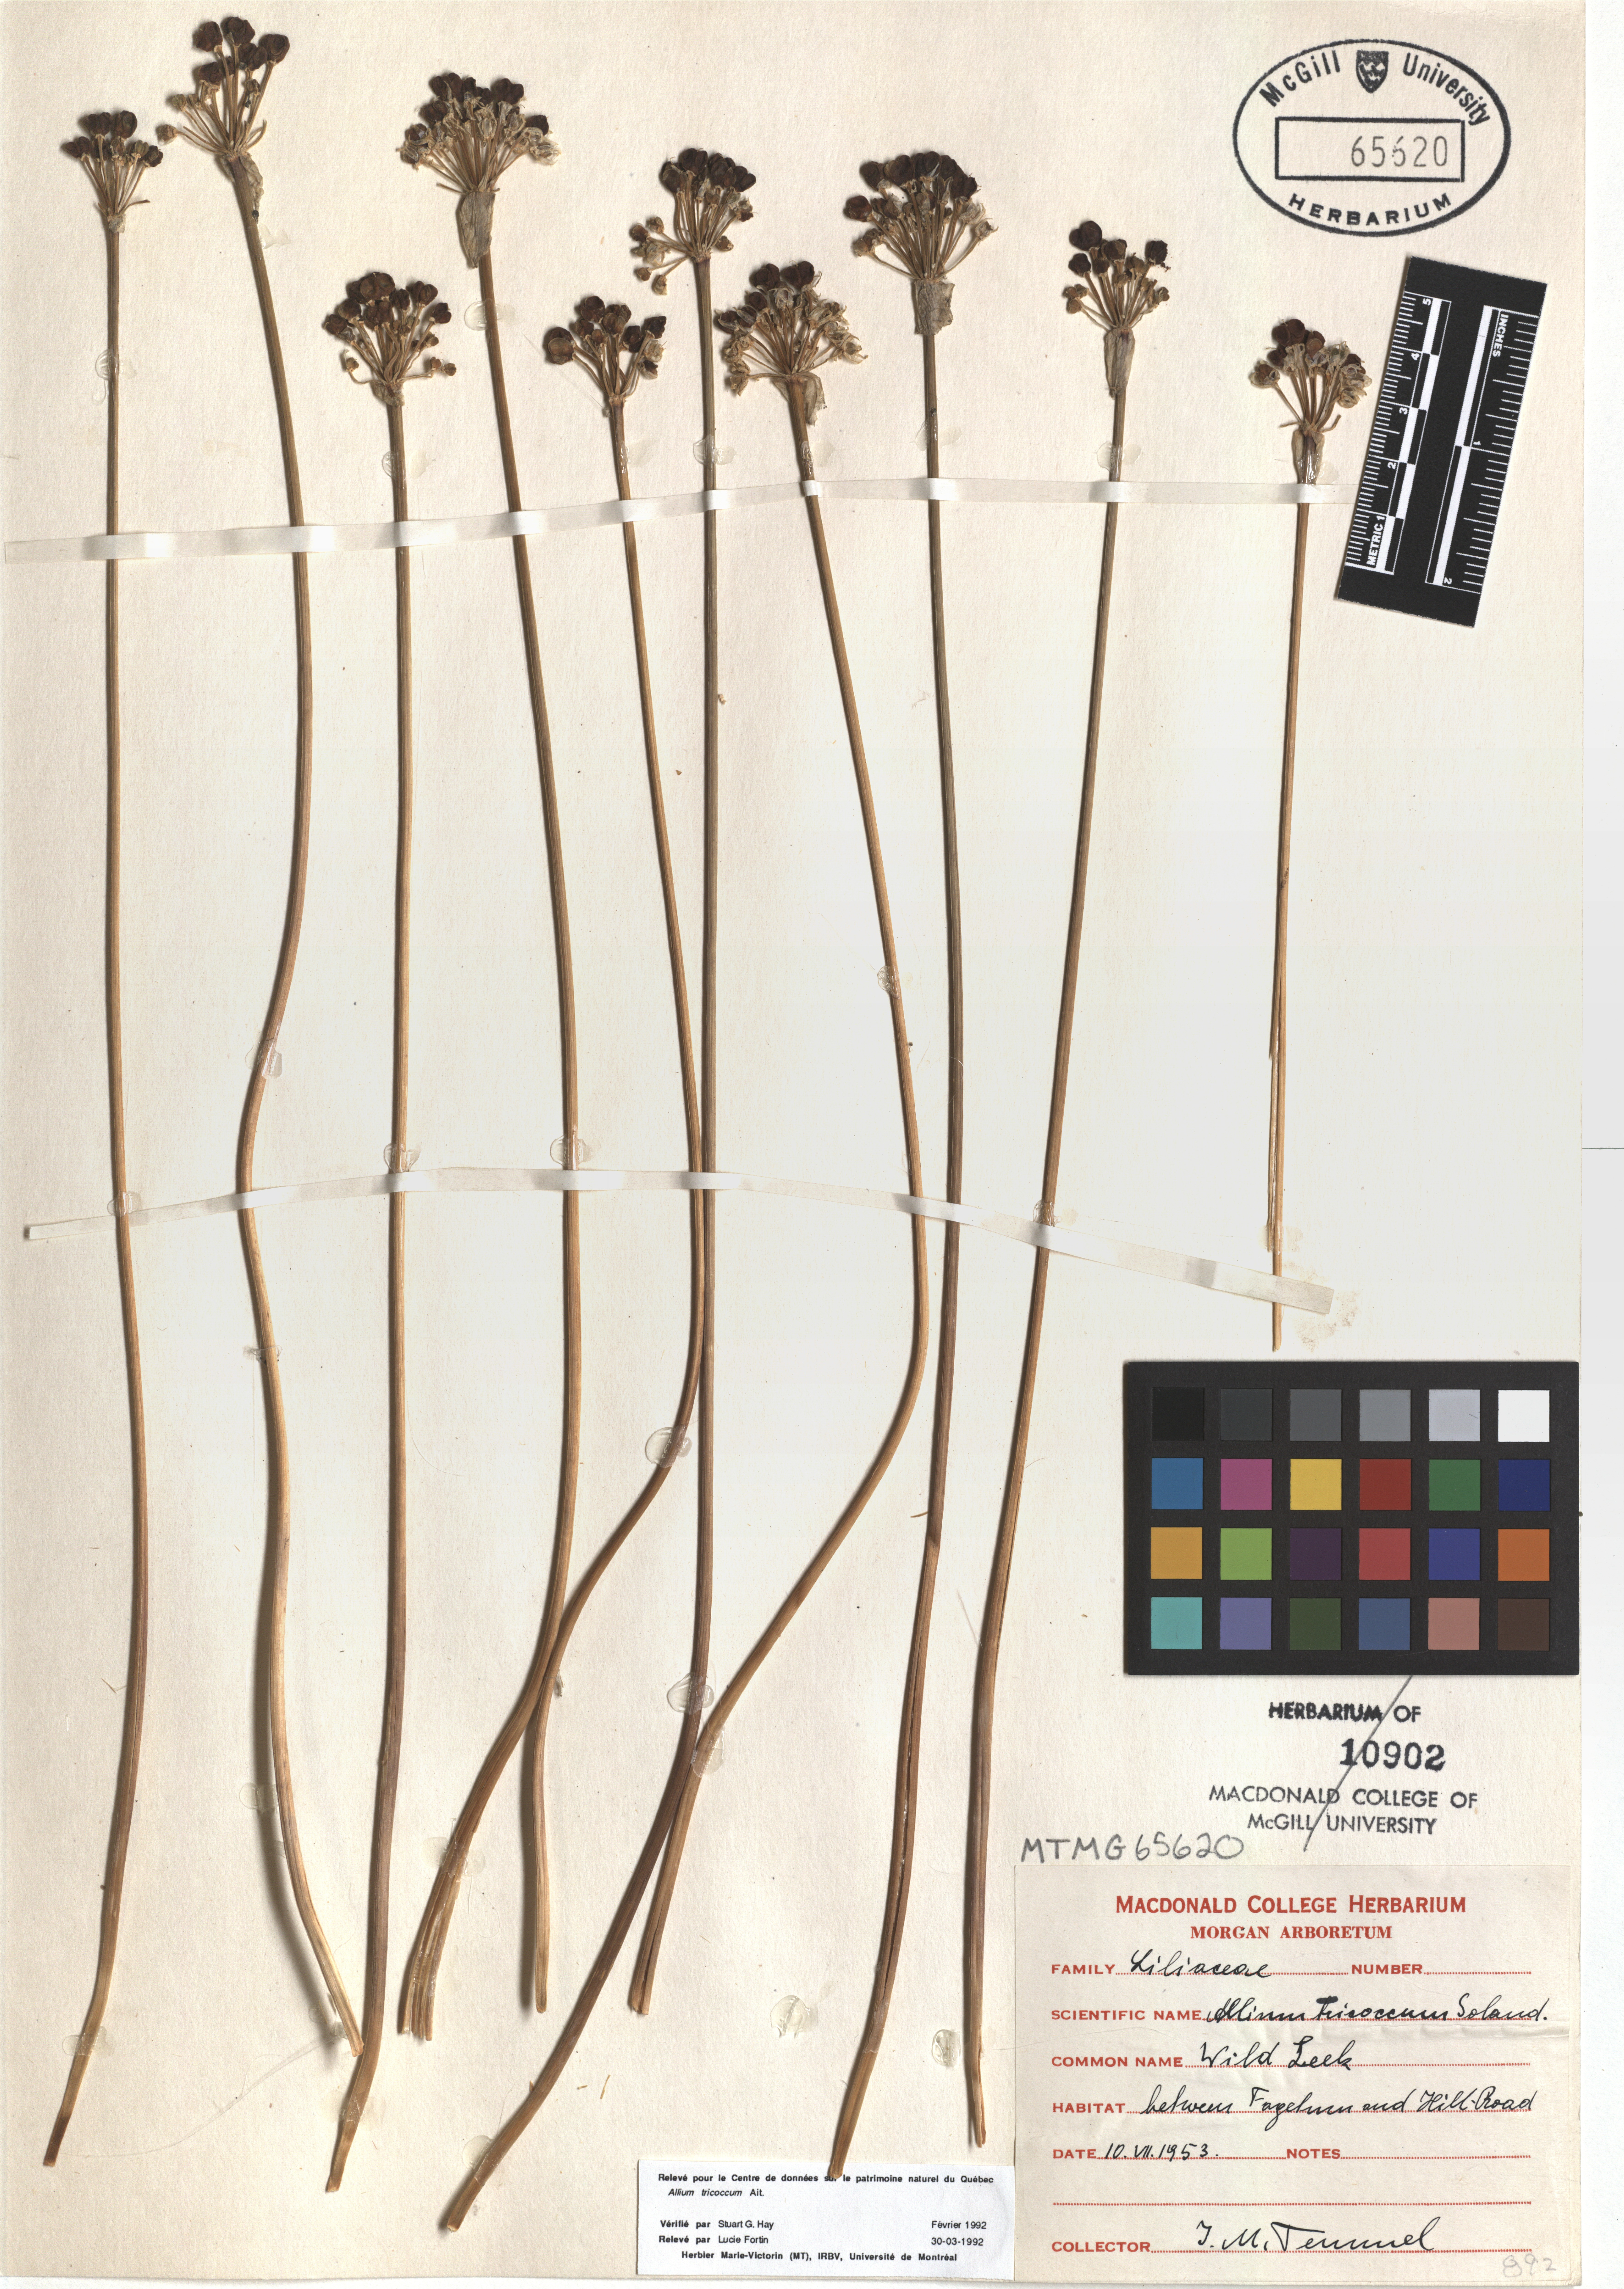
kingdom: Plantae
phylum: Tracheophyta
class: Liliopsida
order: Asparagales
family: Amaryllidaceae
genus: Allium
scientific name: Allium tricoccum
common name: Ramp
